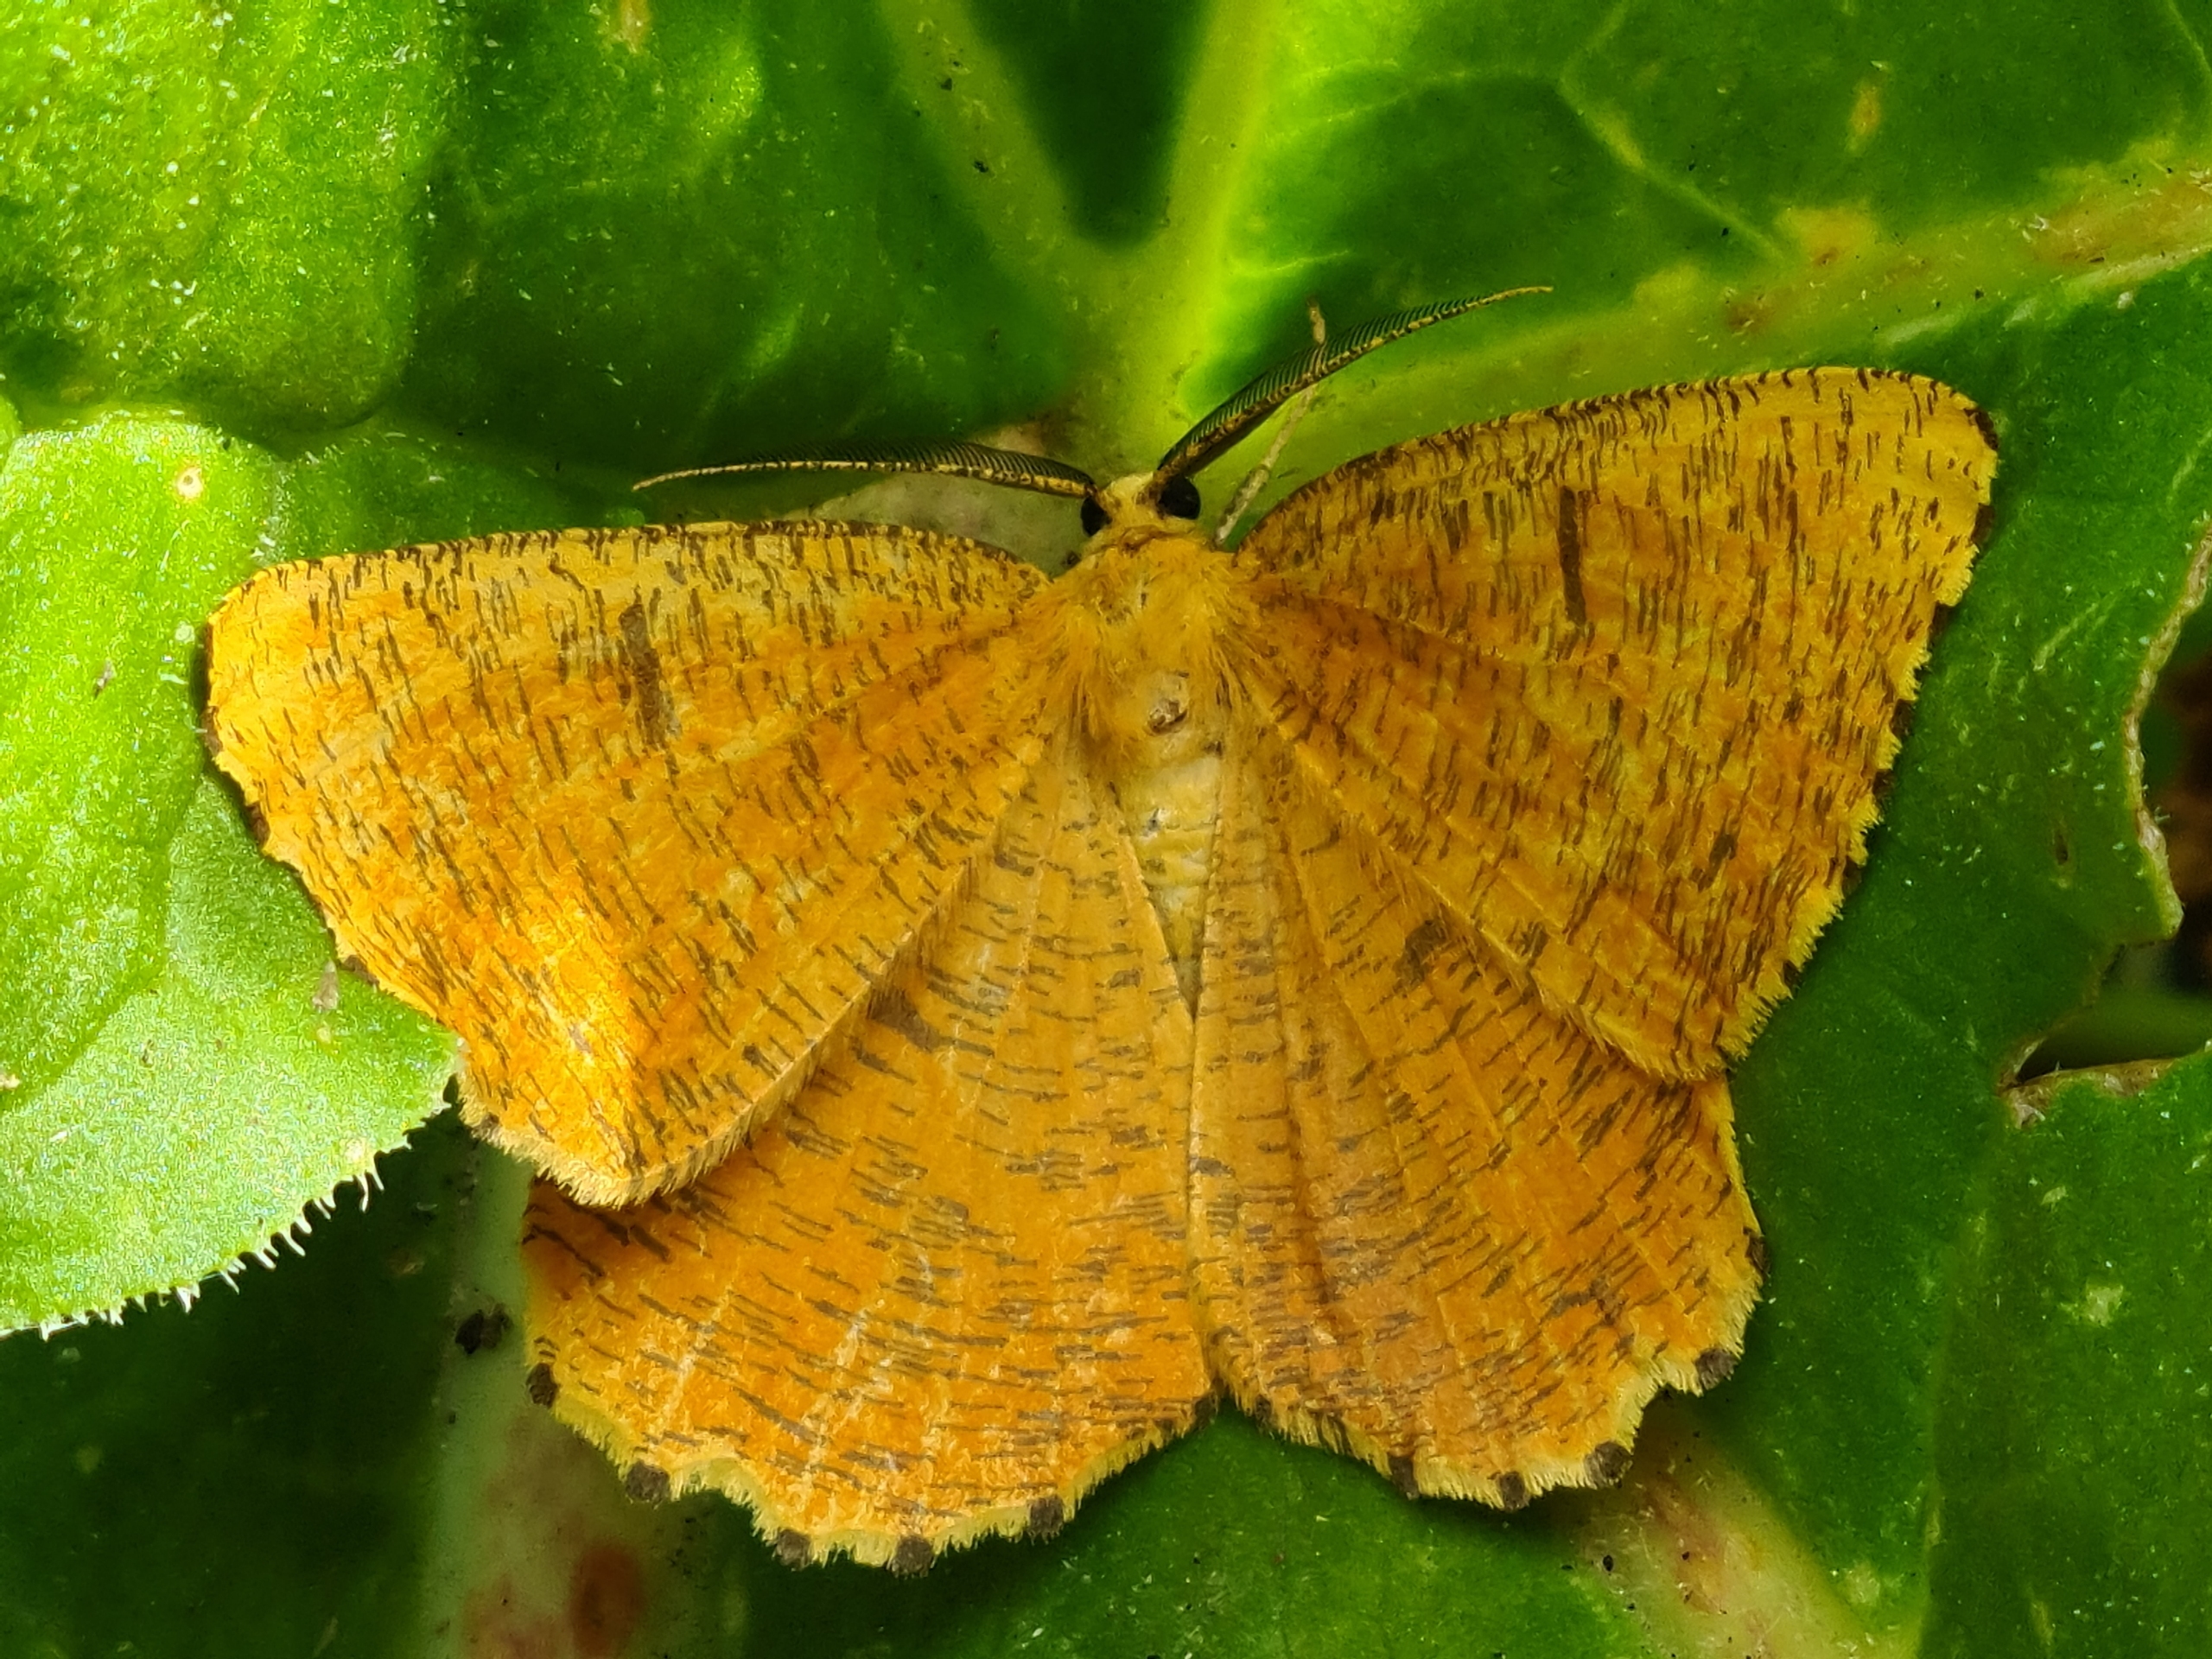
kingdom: Animalia
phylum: Arthropoda
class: Insecta
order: Lepidoptera
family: Geometridae
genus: Angerona
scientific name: Angerona prunaria
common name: Blommemåler
